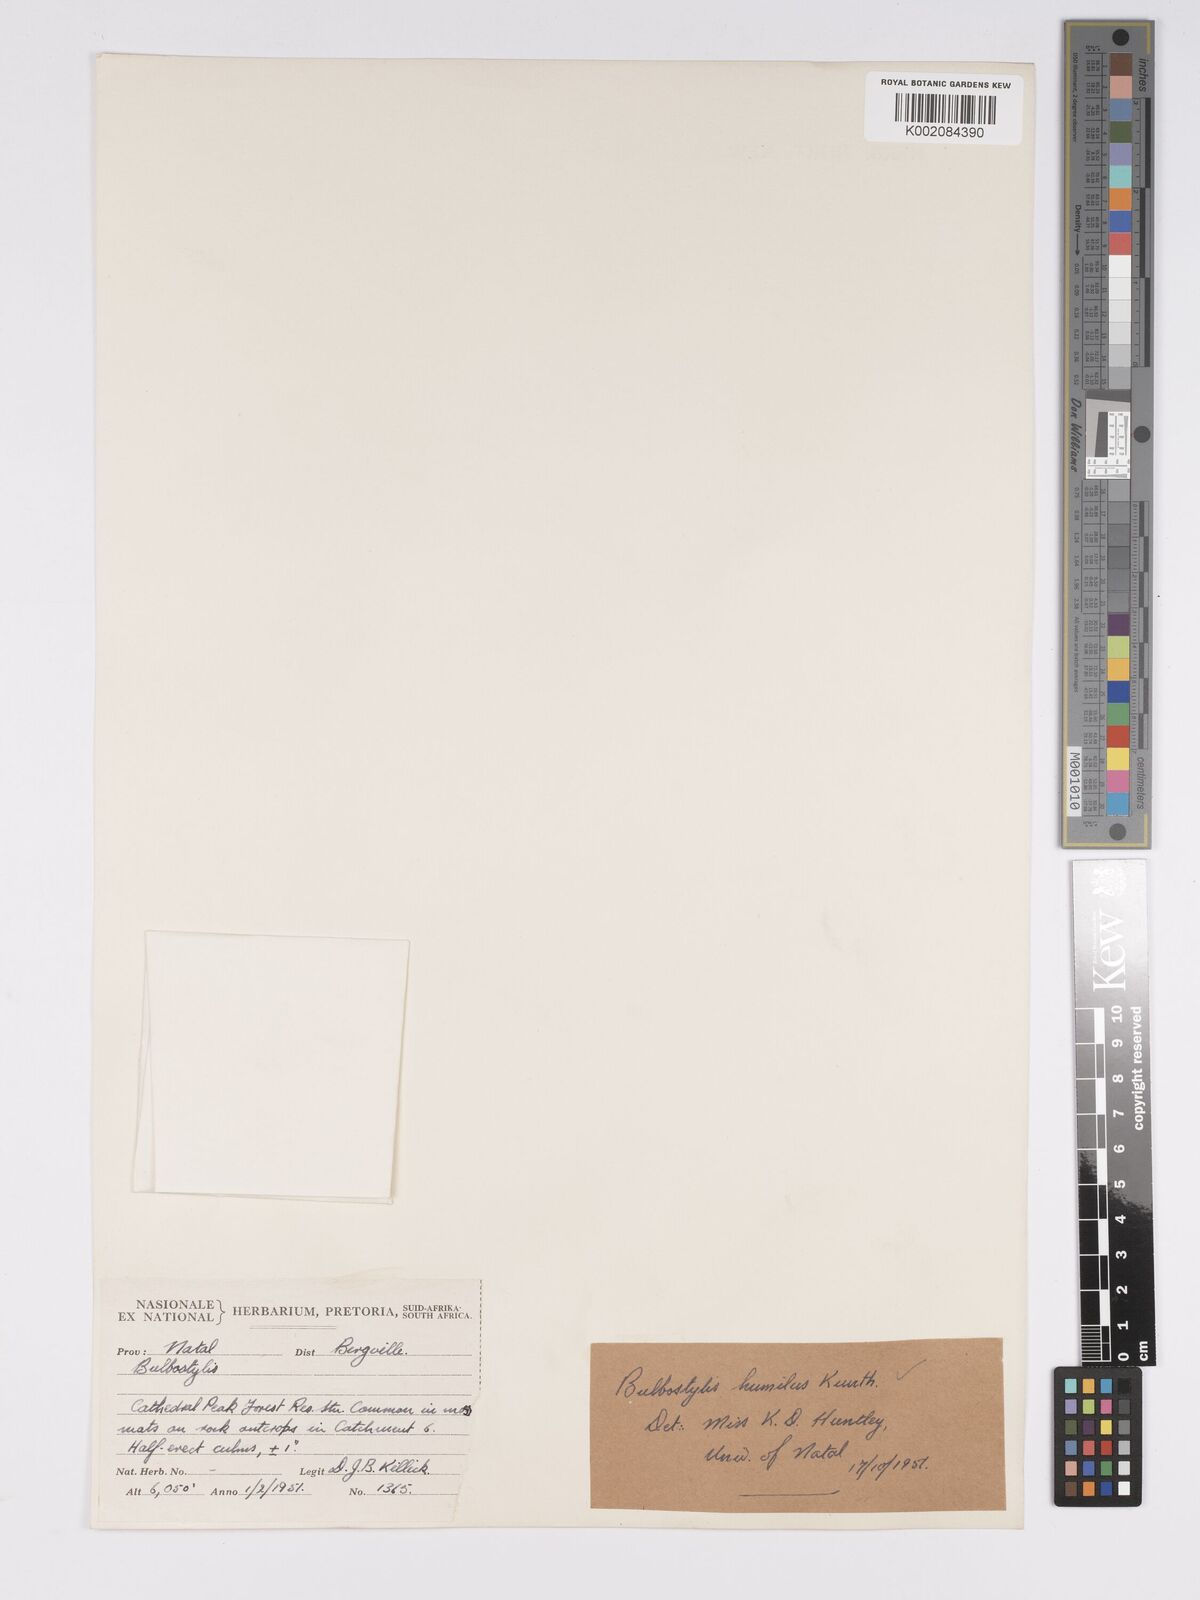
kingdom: Plantae
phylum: Tracheophyta
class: Liliopsida
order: Poales
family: Cyperaceae
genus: Bulbostylis
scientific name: Bulbostylis humilis
